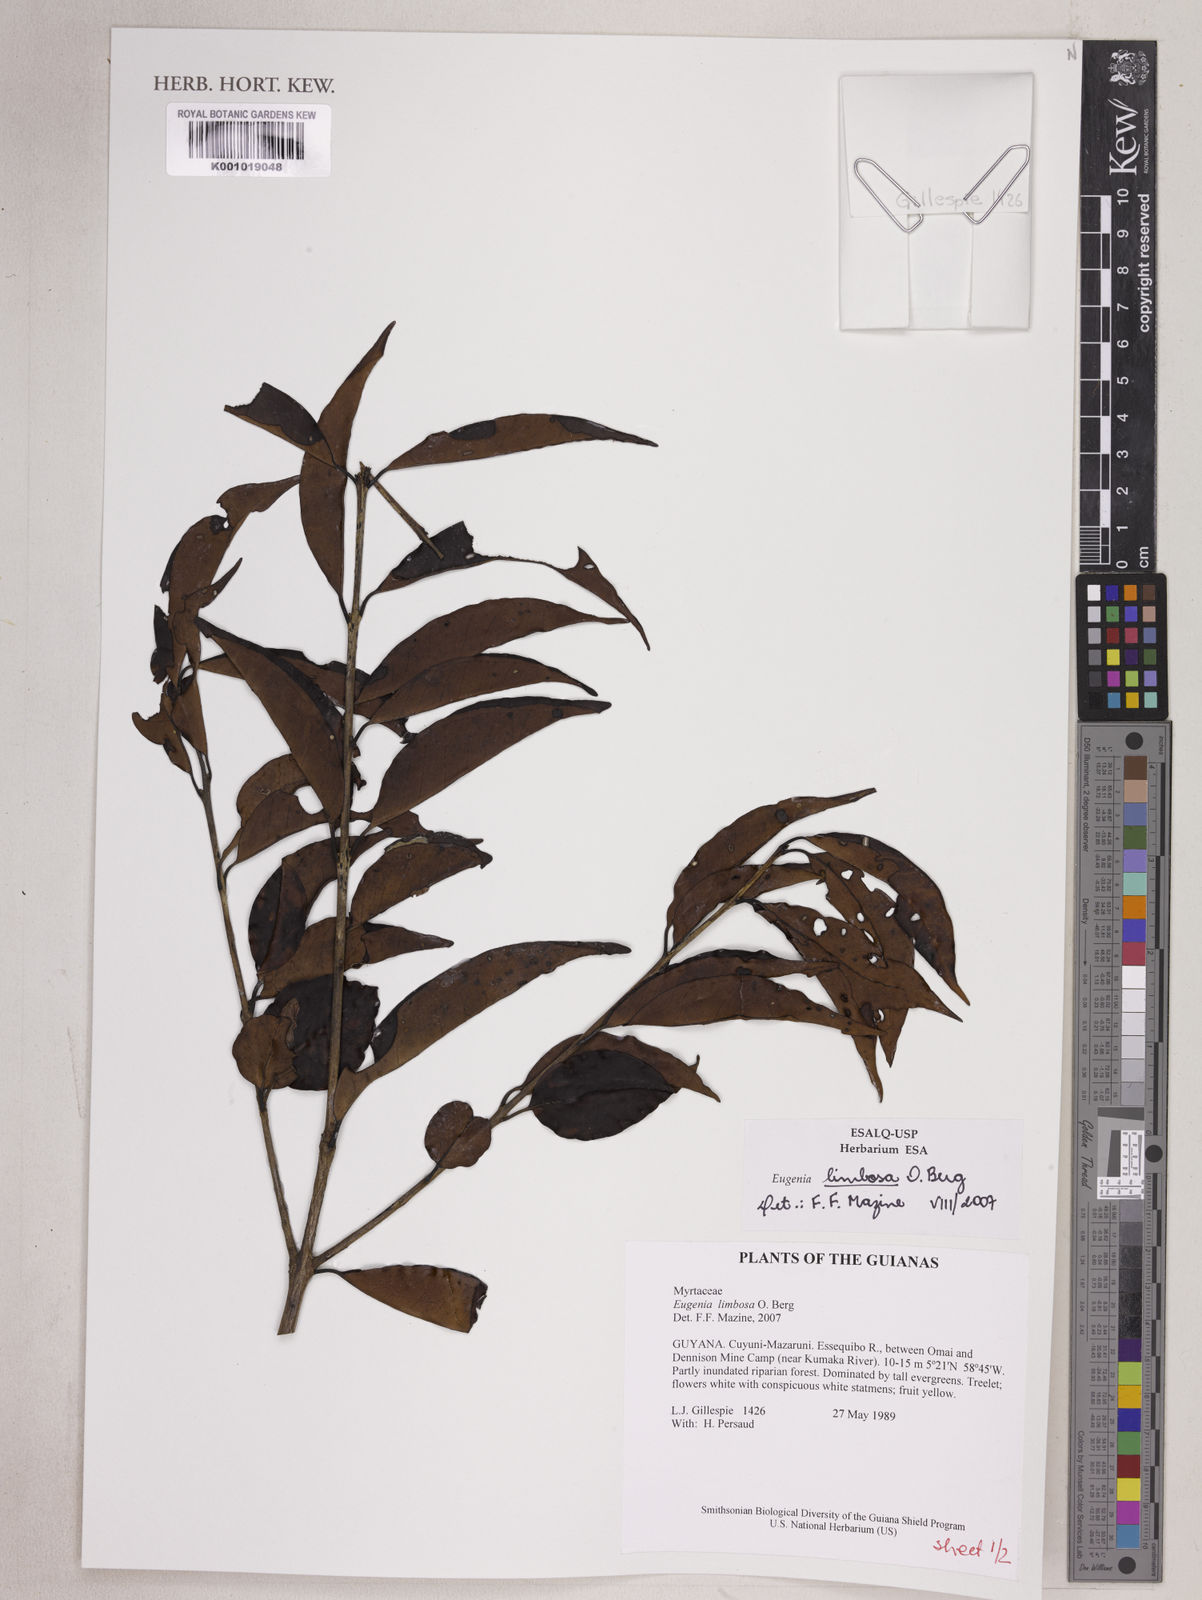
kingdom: Plantae
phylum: Tracheophyta
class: Magnoliopsida
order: Myrtales
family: Myrtaceae
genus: Eugenia
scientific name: Eugenia limbosa
